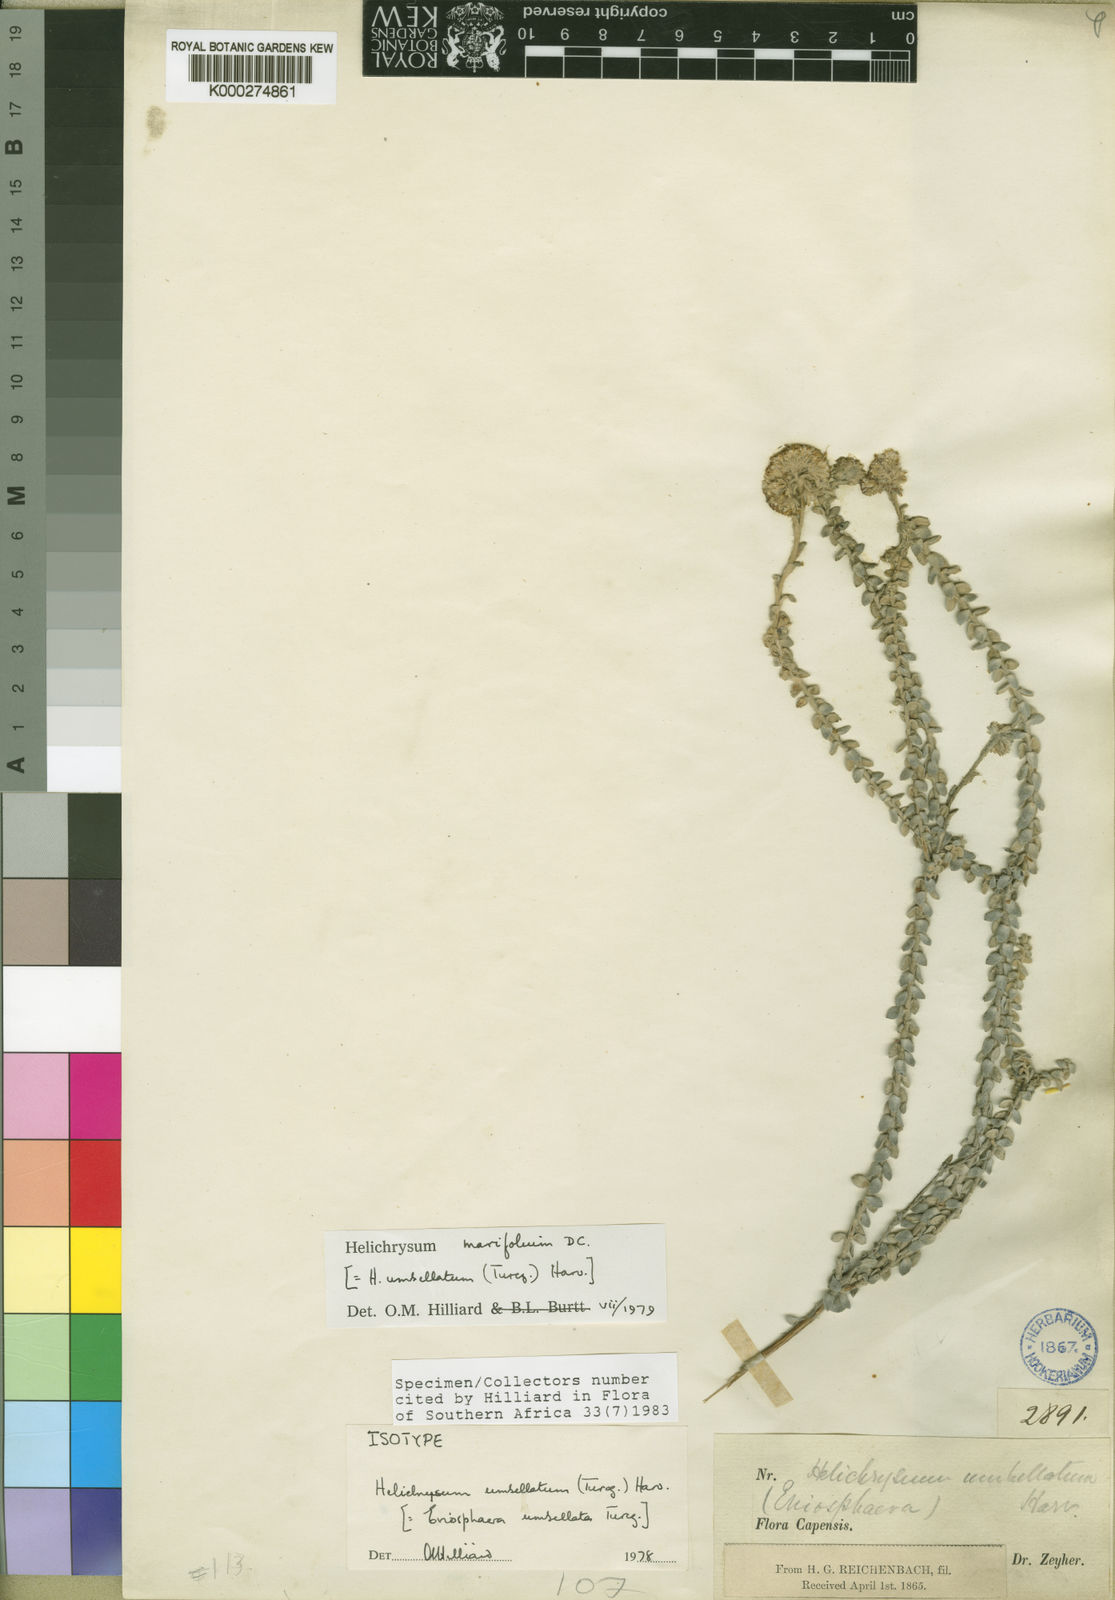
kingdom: Plantae
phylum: Tracheophyta
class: Magnoliopsida
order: Asterales
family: Asteraceae
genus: Helichrysum
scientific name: Helichrysum marifolium
